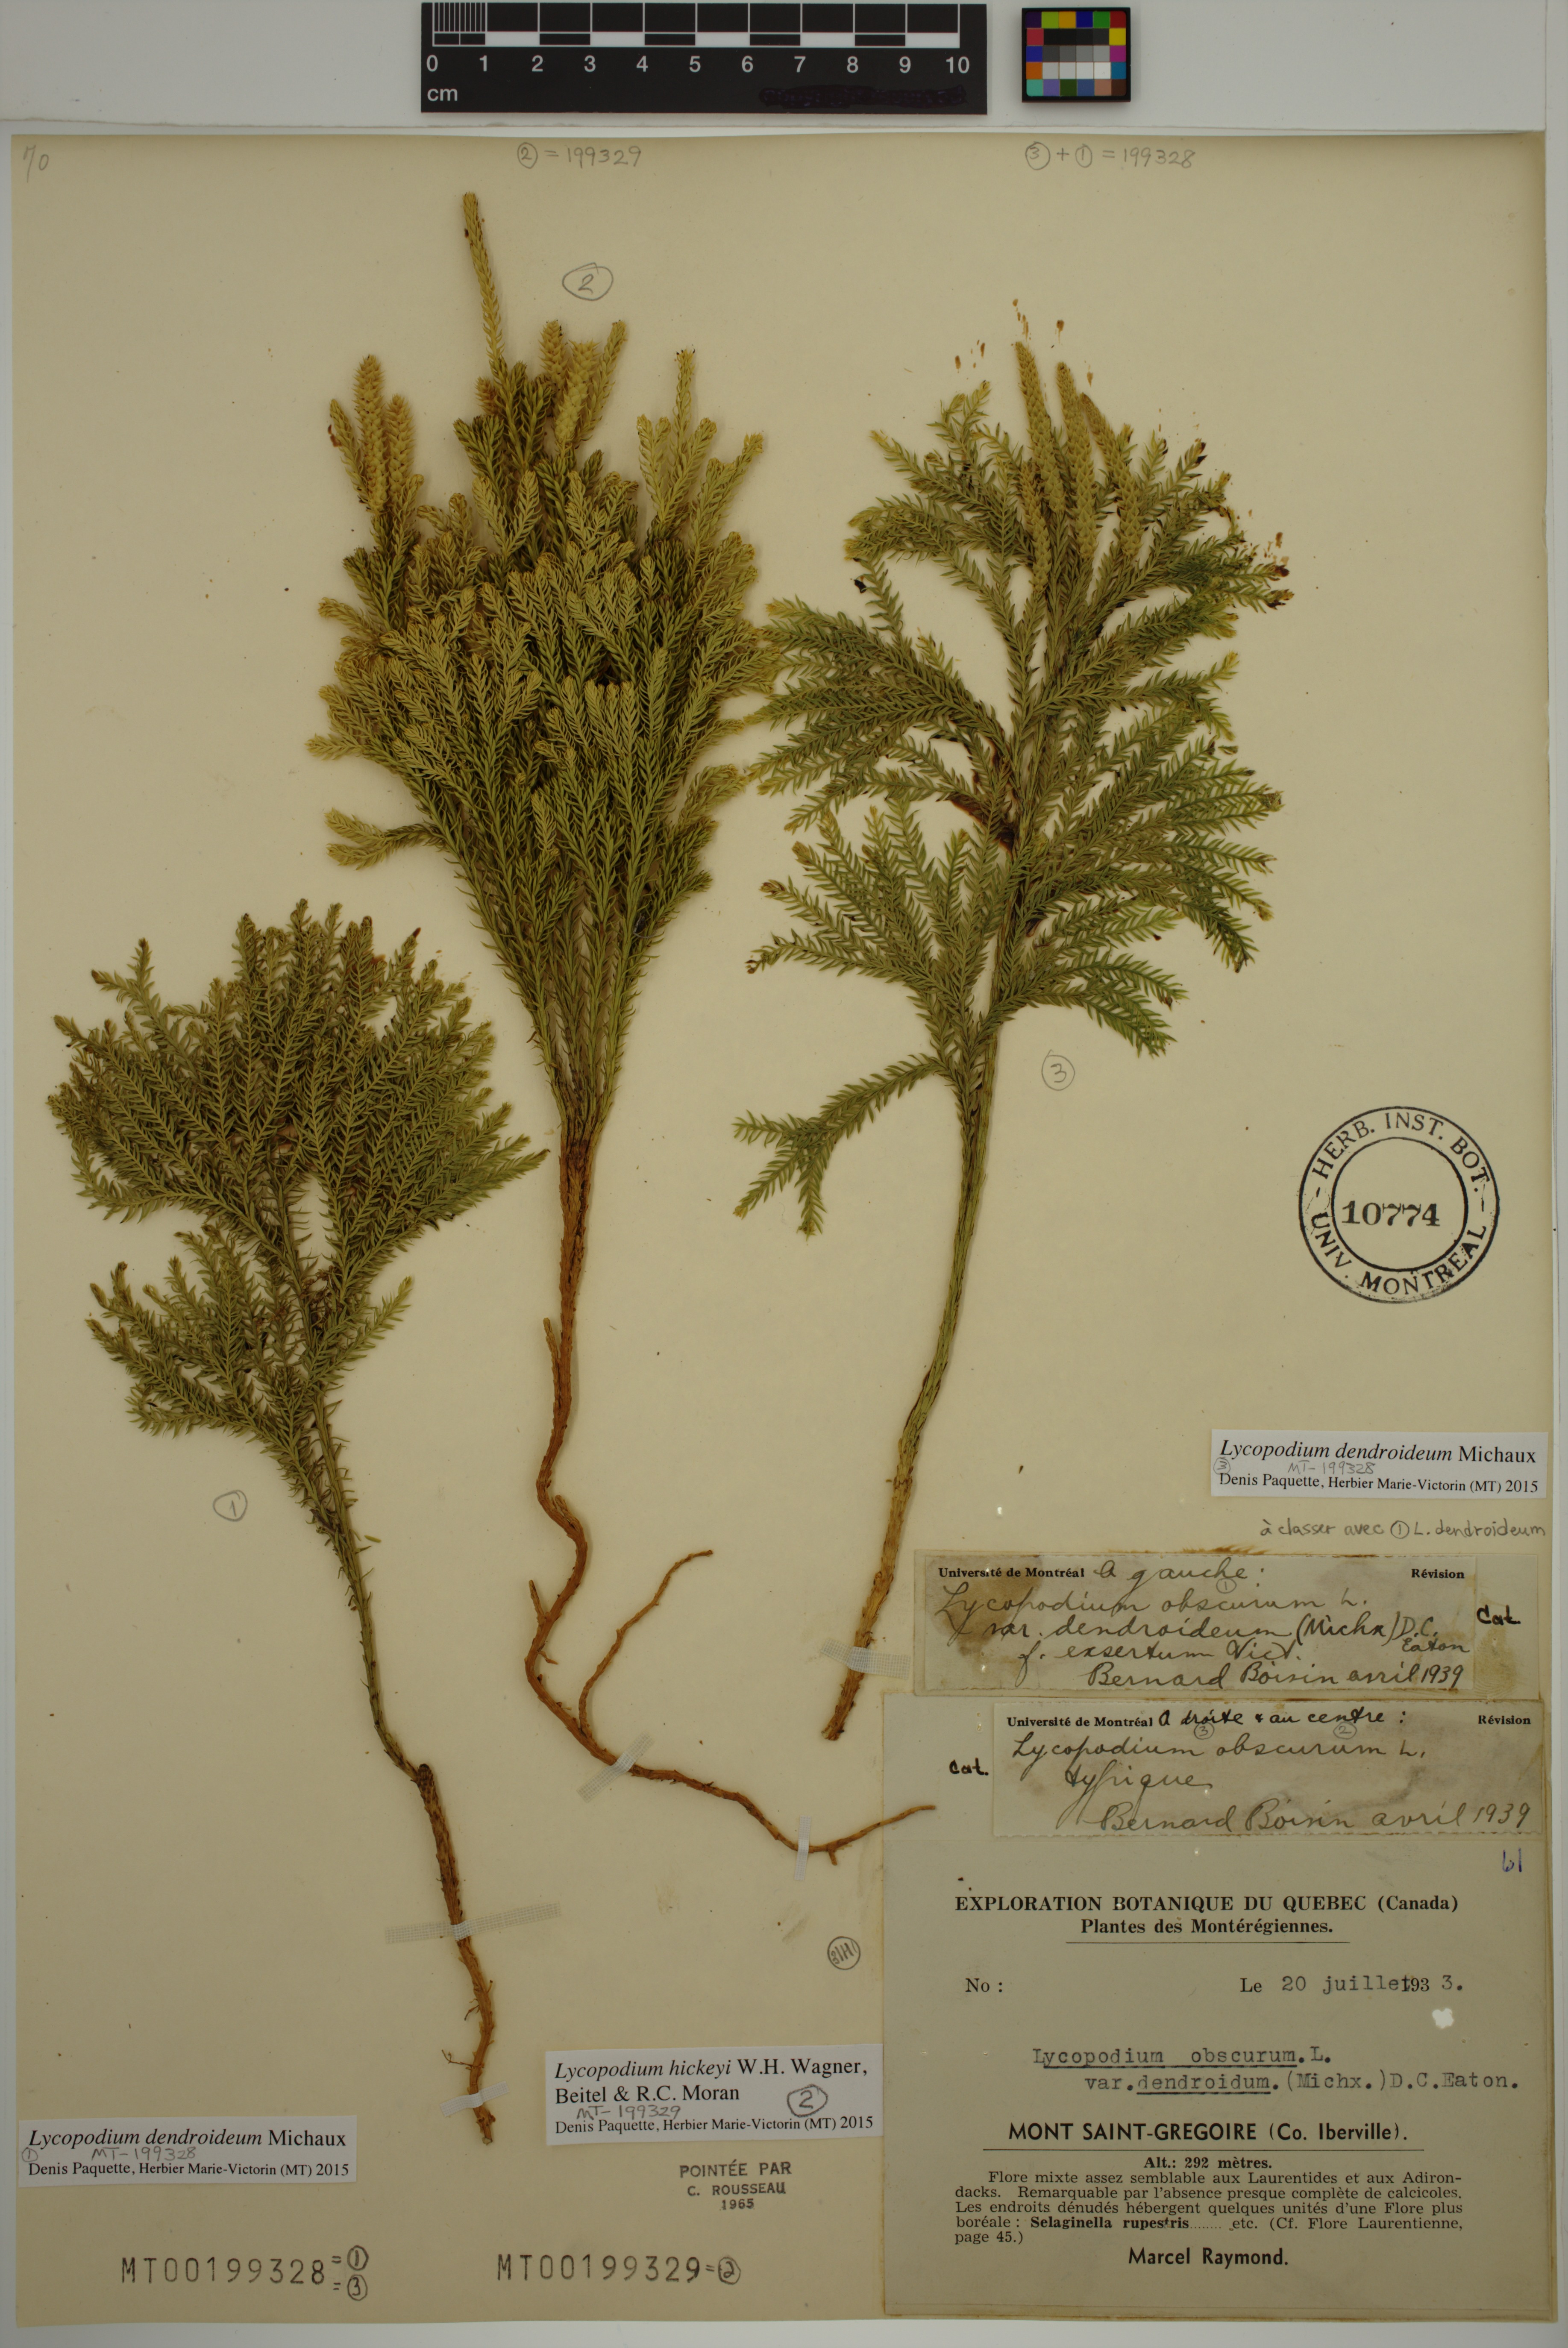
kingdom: Plantae
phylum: Tracheophyta
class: Lycopodiopsida
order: Lycopodiales
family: Lycopodiaceae
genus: Dendrolycopodium
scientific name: Dendrolycopodium dendroideum
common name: Northern tree-clubmoss
